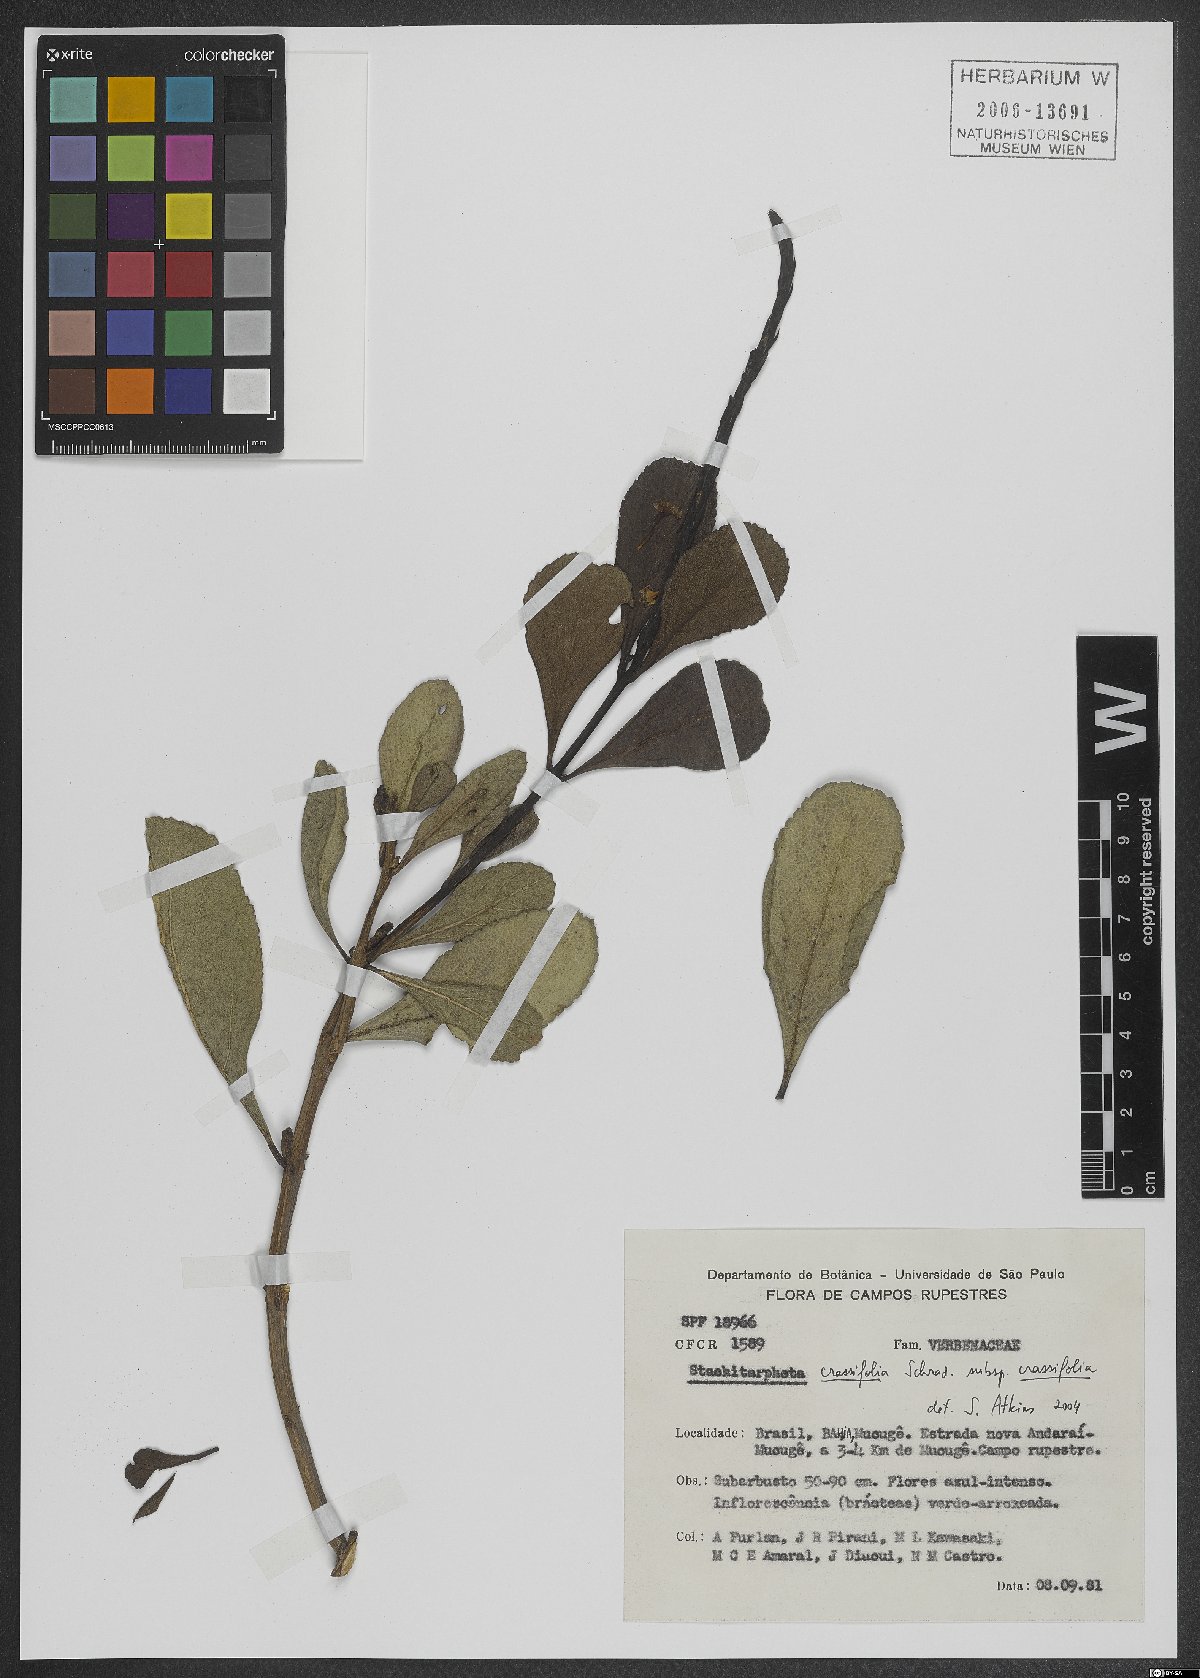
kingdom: Plantae
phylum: Tracheophyta
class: Magnoliopsida
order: Lamiales
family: Verbenaceae
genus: Stachytarpheta
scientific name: Stachytarpheta crassifolia
